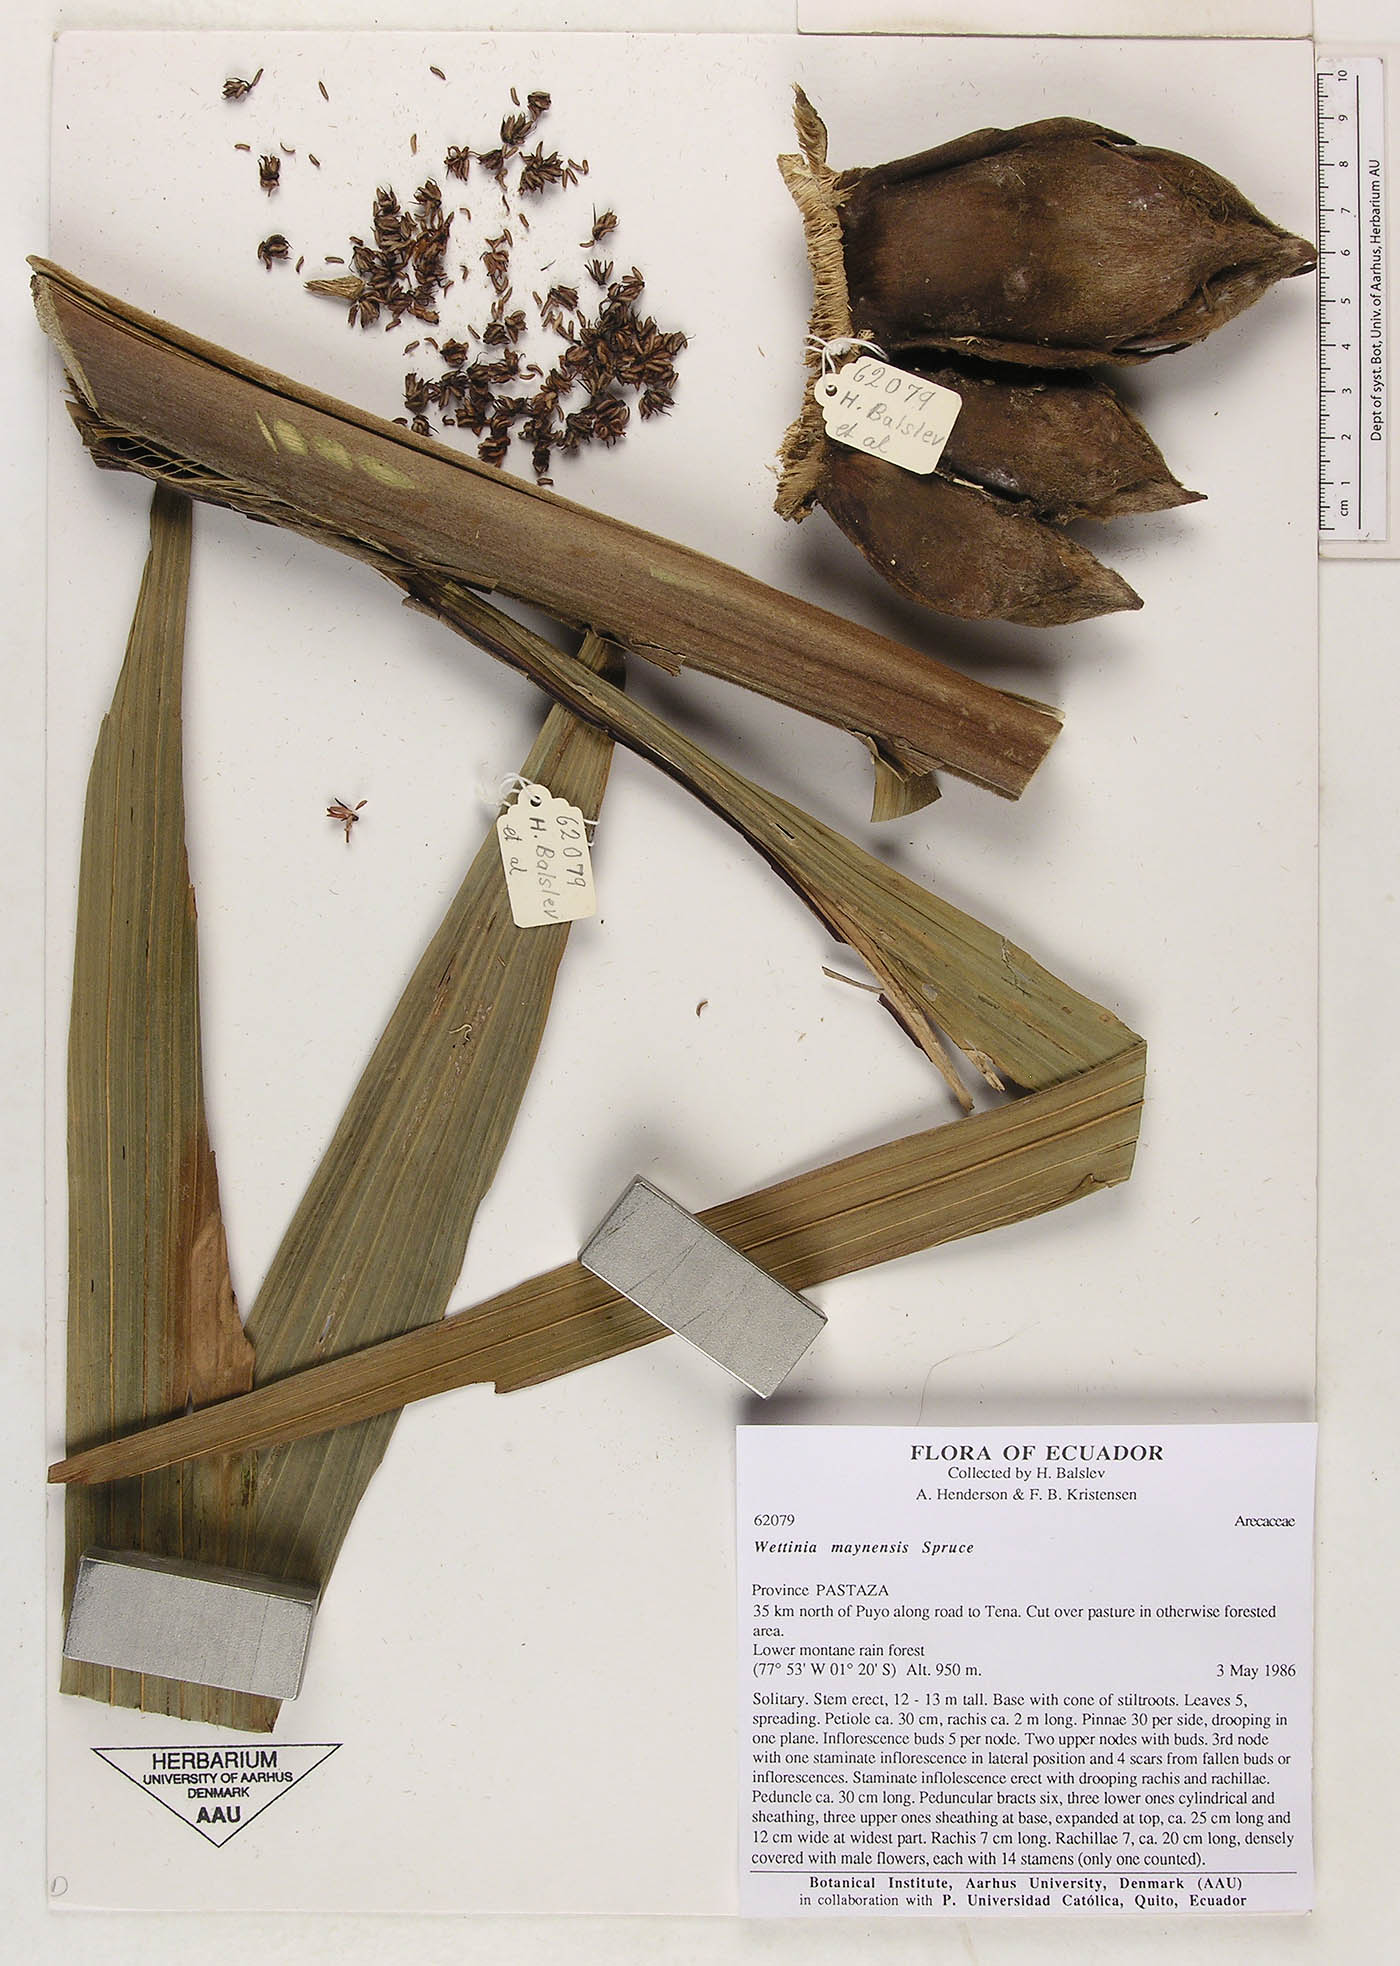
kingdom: Plantae
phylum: Tracheophyta
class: Liliopsida
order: Arecales
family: Arecaceae
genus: Wettinia
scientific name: Wettinia maynensis
